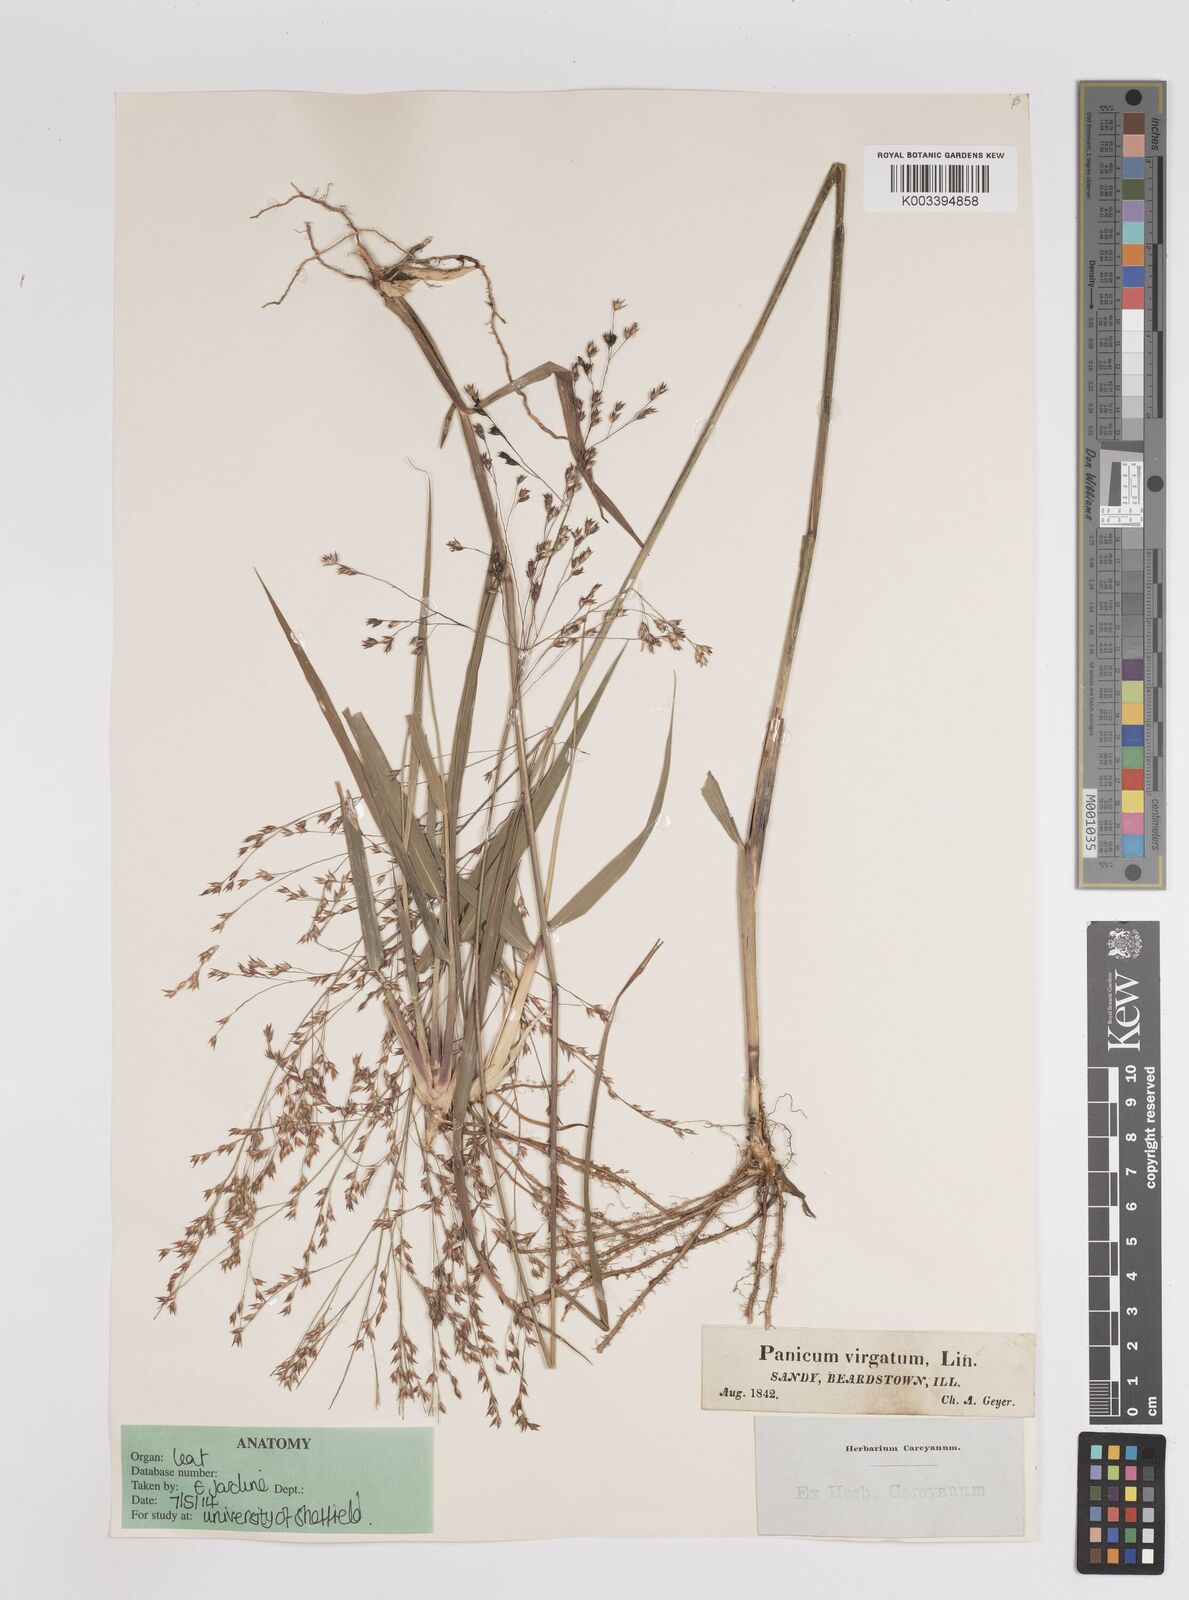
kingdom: Plantae
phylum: Tracheophyta
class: Liliopsida
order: Poales
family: Poaceae
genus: Panicum
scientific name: Panicum virgatum
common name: Switchgrass
